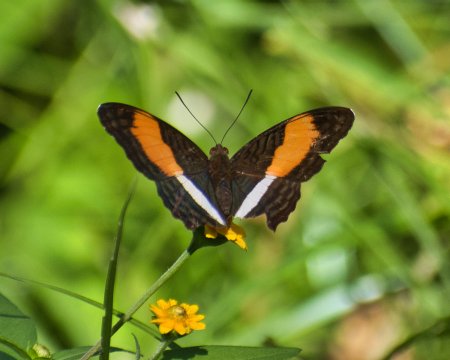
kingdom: Animalia
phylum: Arthropoda
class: Insecta
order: Lepidoptera
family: Nymphalidae
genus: Limenitis
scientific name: Limenitis cocala
